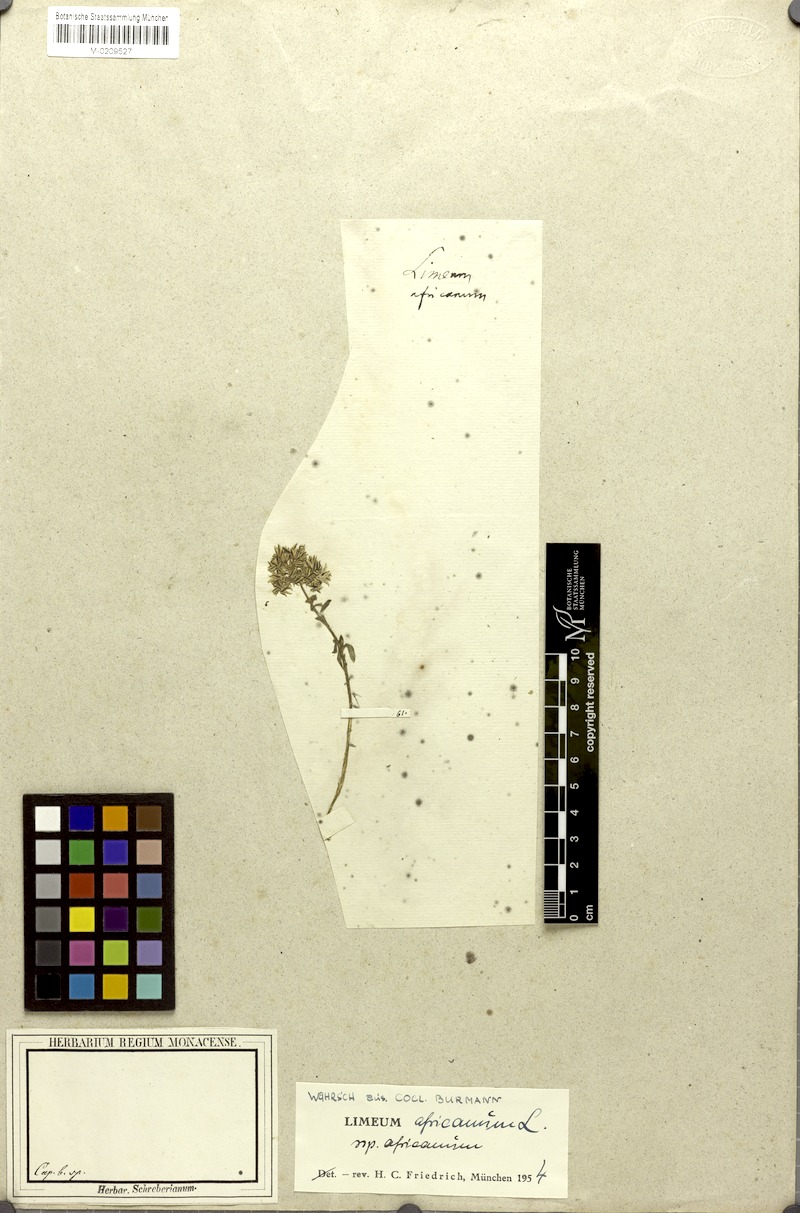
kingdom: Plantae
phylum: Tracheophyta
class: Magnoliopsida
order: Caryophyllales
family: Limeaceae
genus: Limeum
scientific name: Limeum africanum
